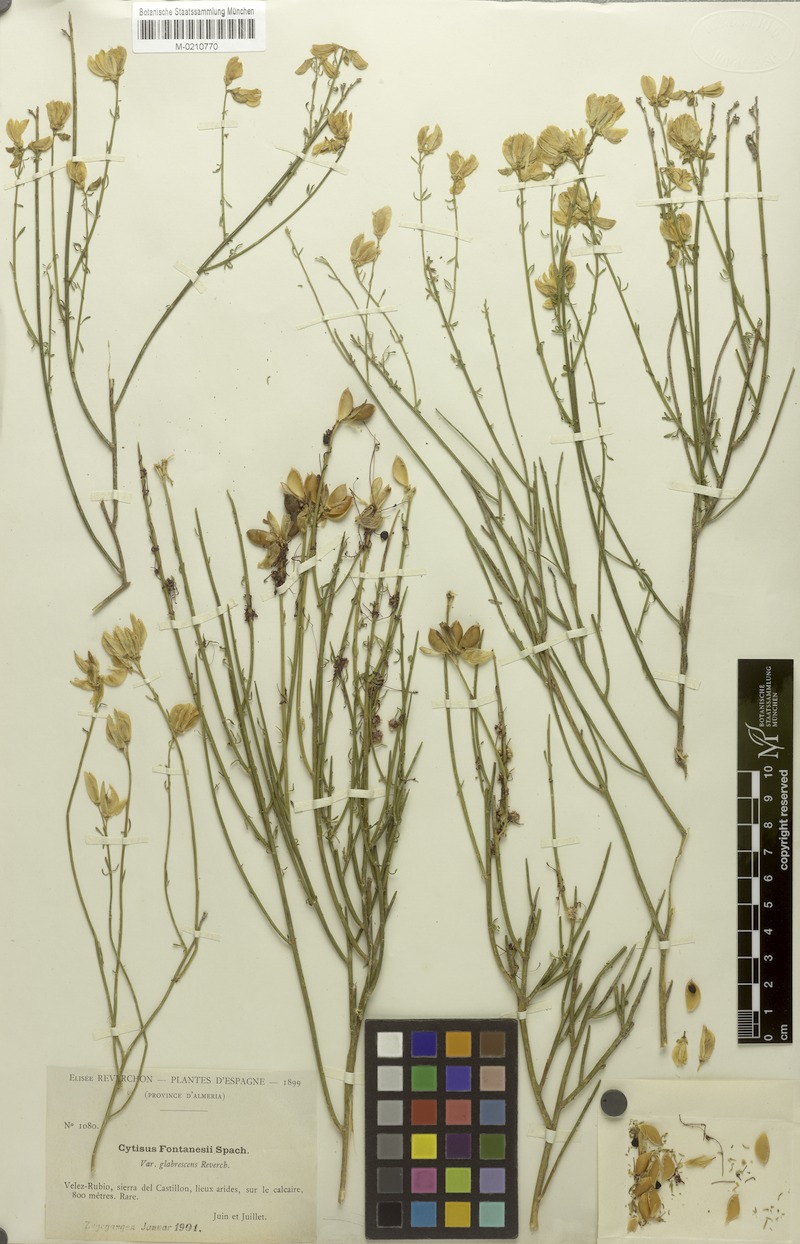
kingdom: Plantae
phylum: Tracheophyta
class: Magnoliopsida
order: Fabales
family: Fabaceae
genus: Cytisus
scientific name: Cytisus fontanesii
